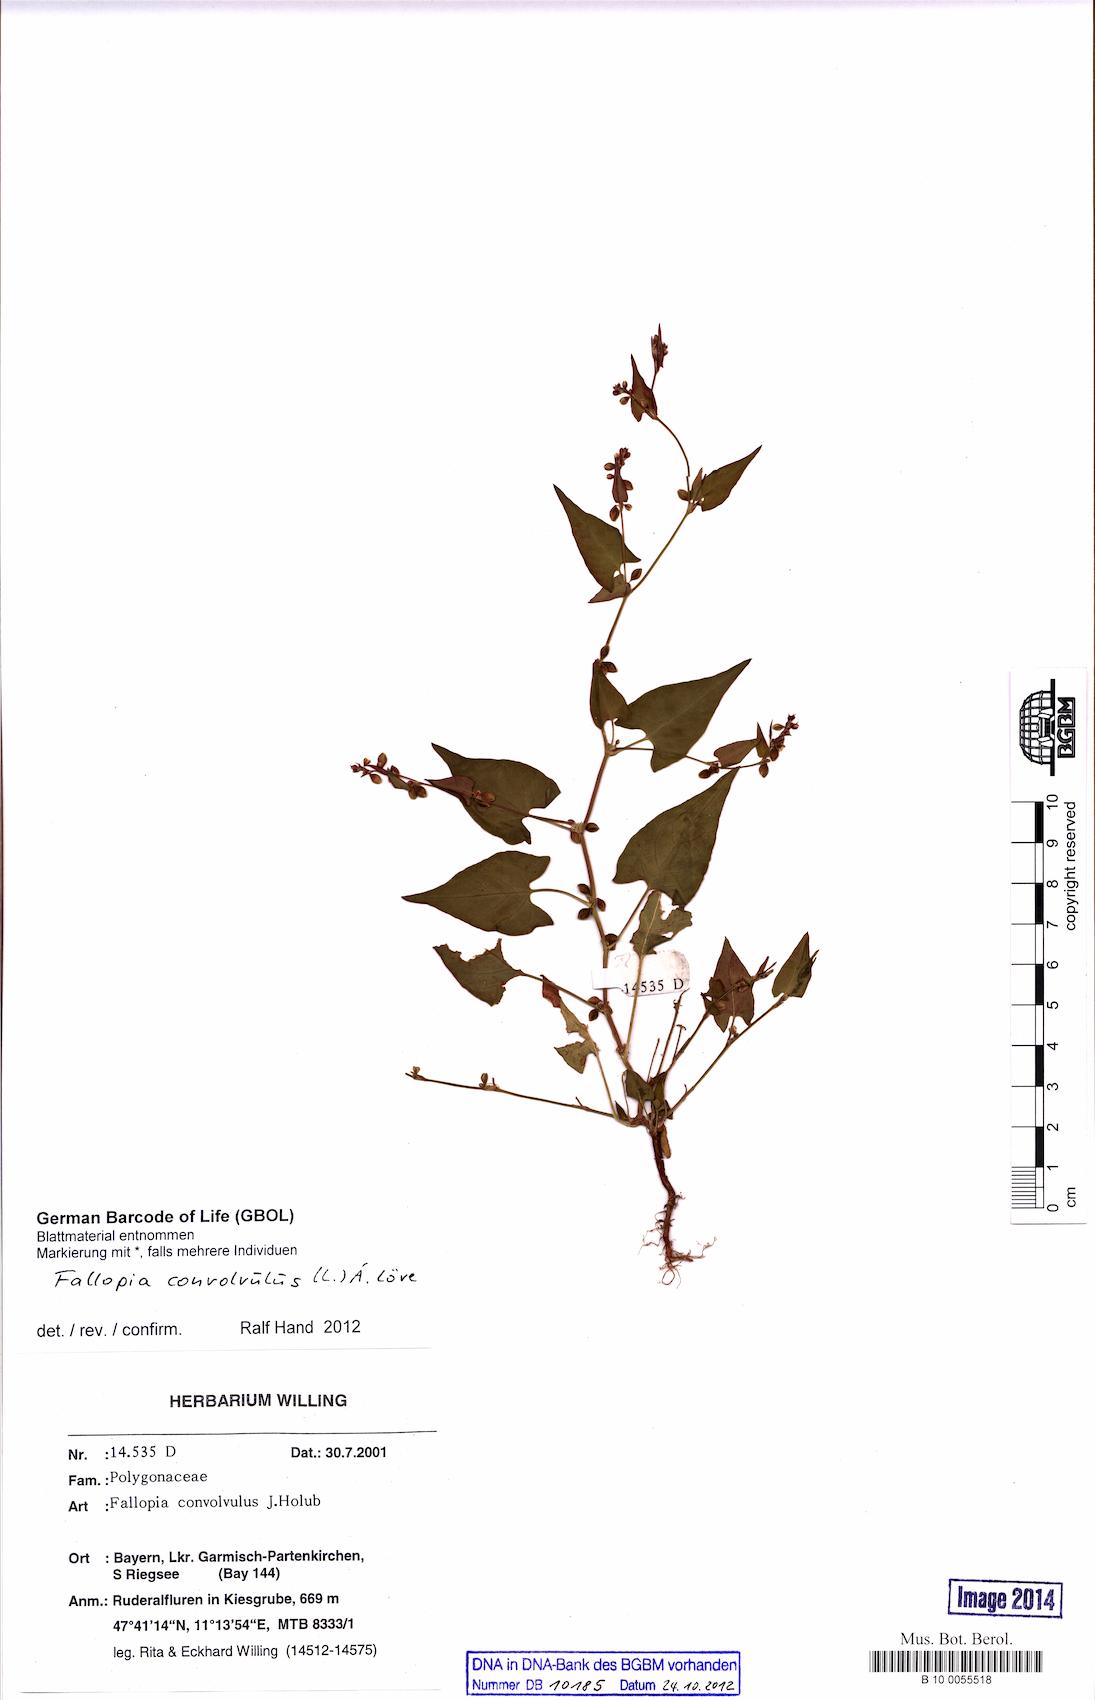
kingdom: Plantae
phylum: Tracheophyta
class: Magnoliopsida
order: Caryophyllales
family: Polygonaceae
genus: Fallopia
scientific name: Fallopia convolvulus
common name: Black bindweed
